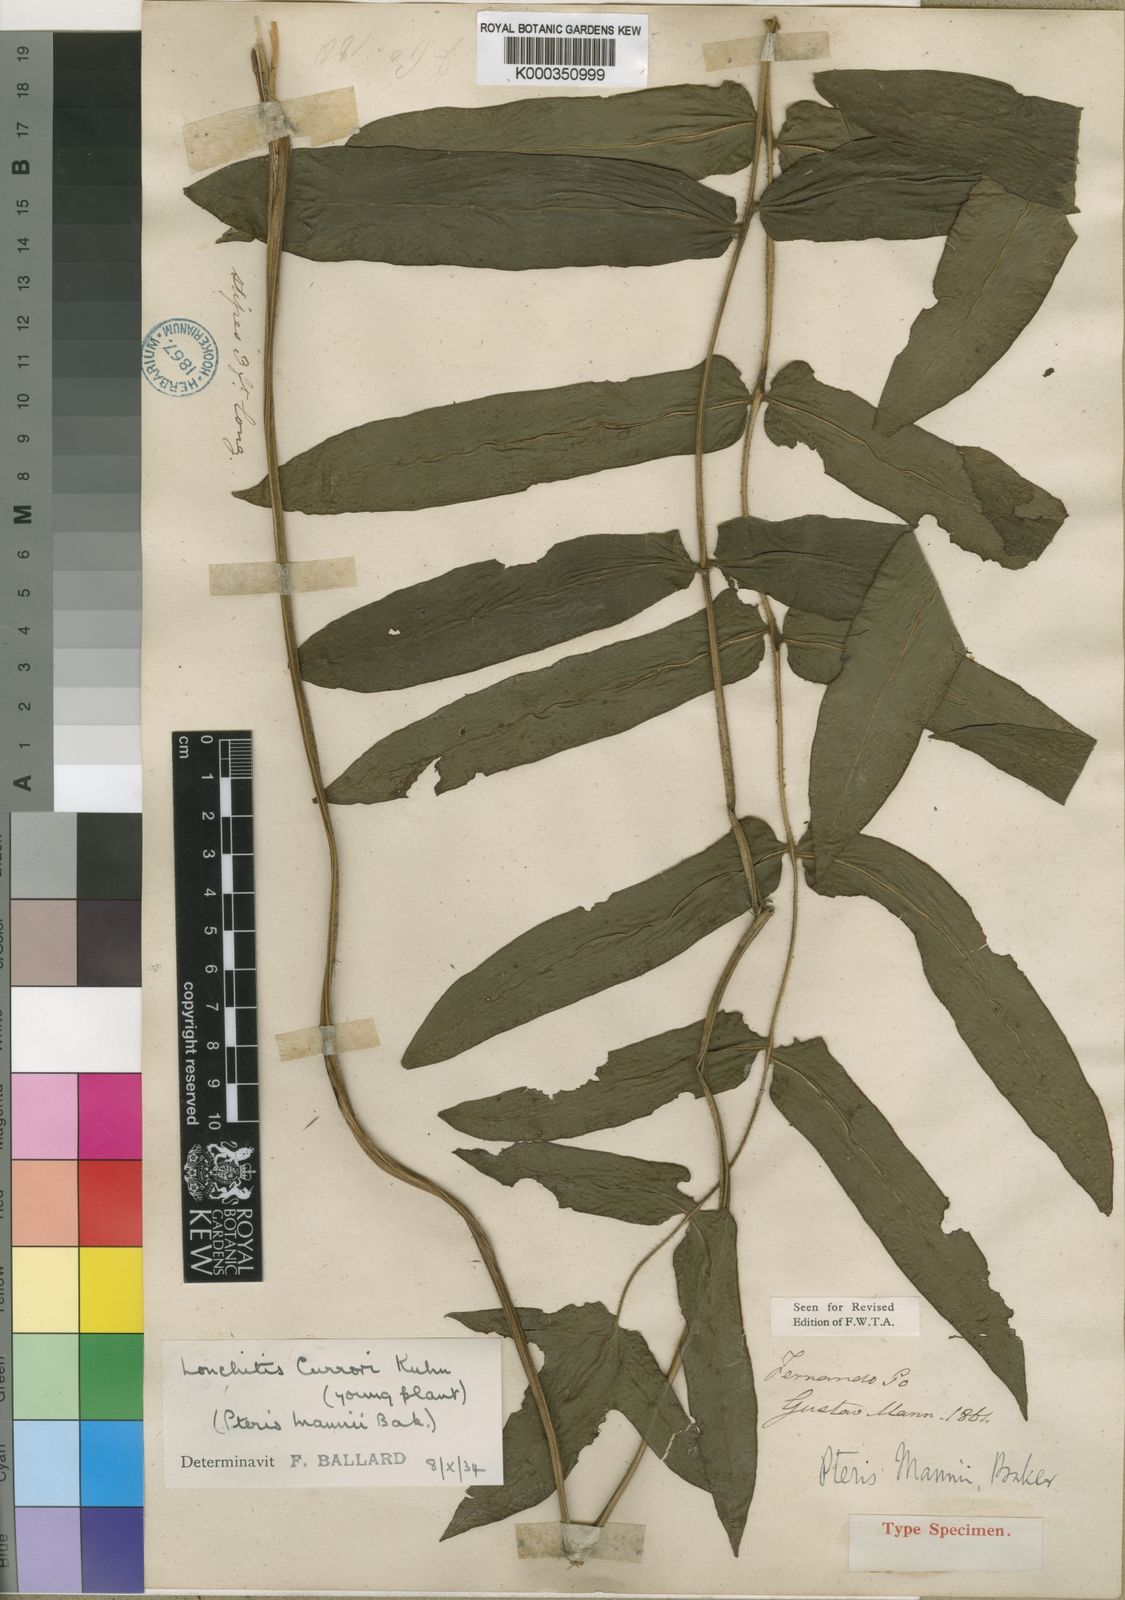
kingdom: Plantae
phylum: Tracheophyta
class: Polypodiopsida
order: Polypodiales
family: Dennstaedtiaceae
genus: Blotiella
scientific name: Blotiella currorii
